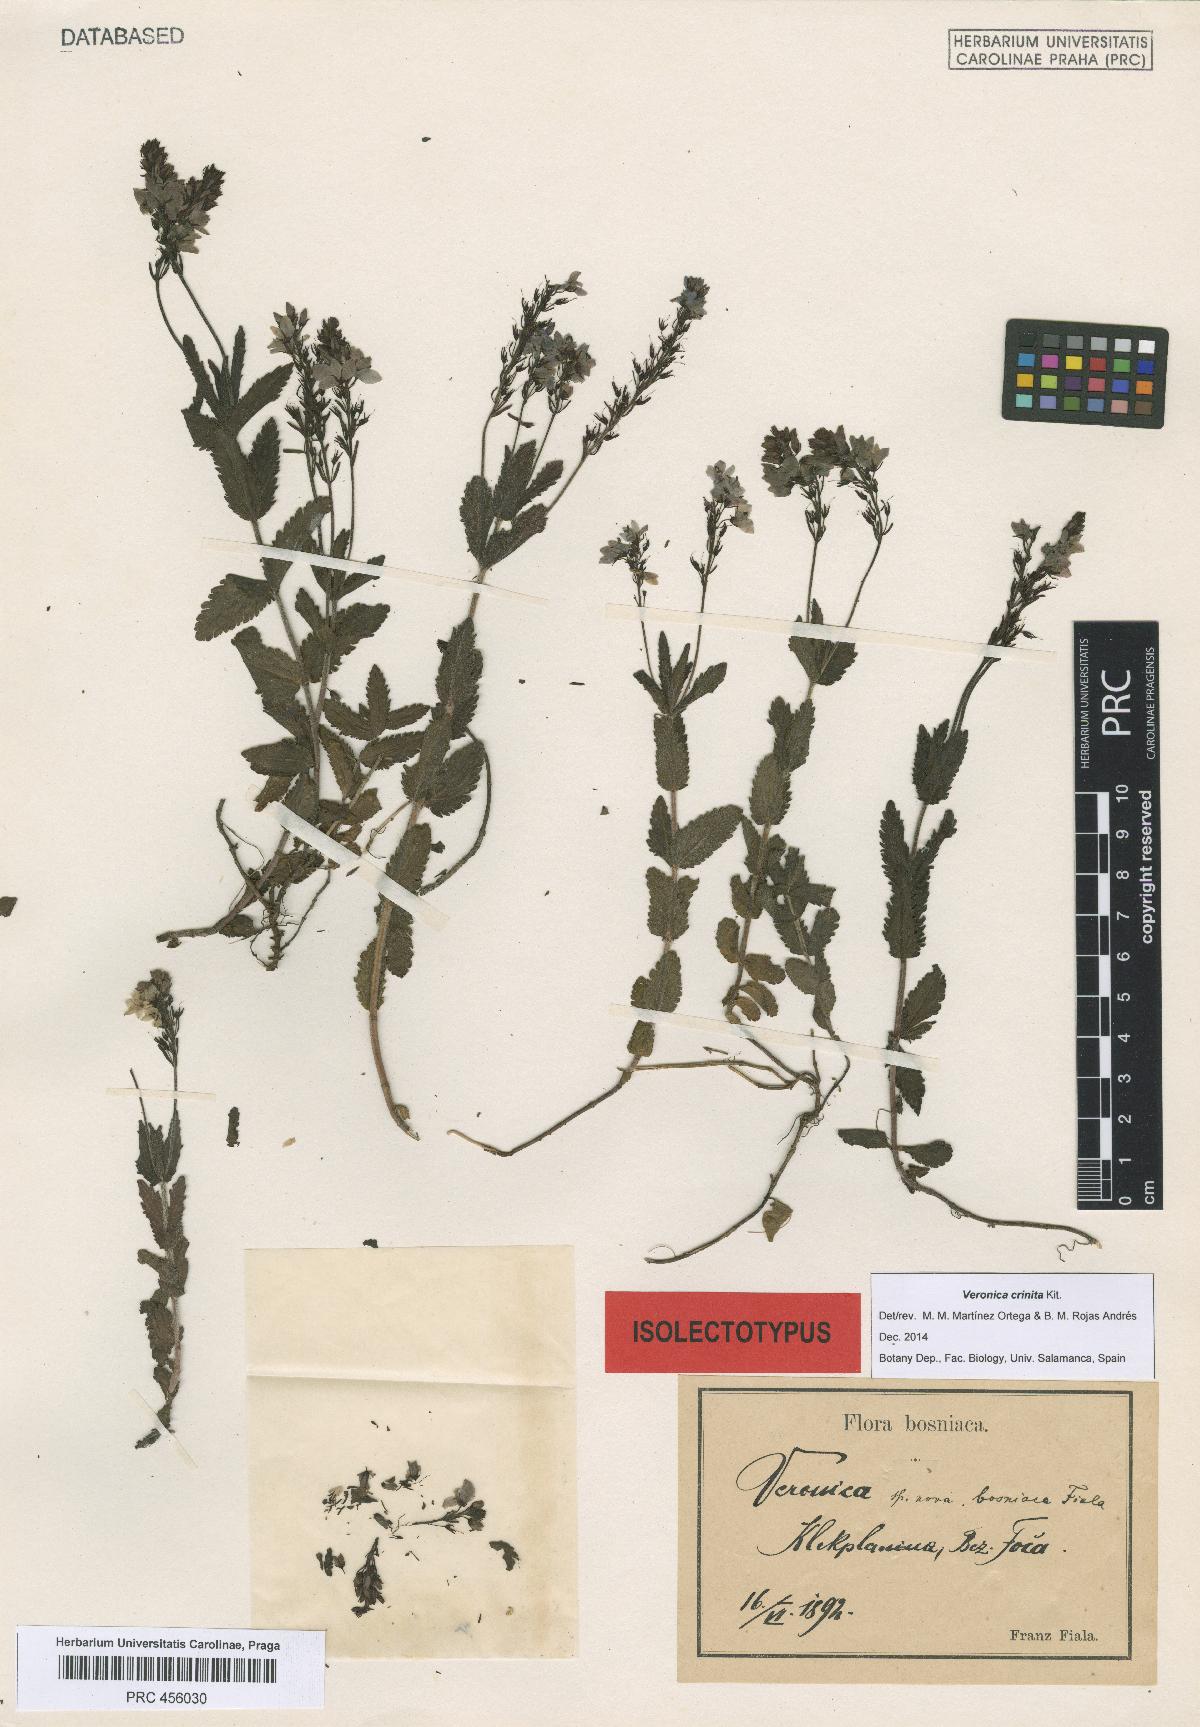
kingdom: Plantae
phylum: Tracheophyta
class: Magnoliopsida
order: Lamiales
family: Plantaginaceae
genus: Veronica
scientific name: Veronica teucrium
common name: Large speedwell
